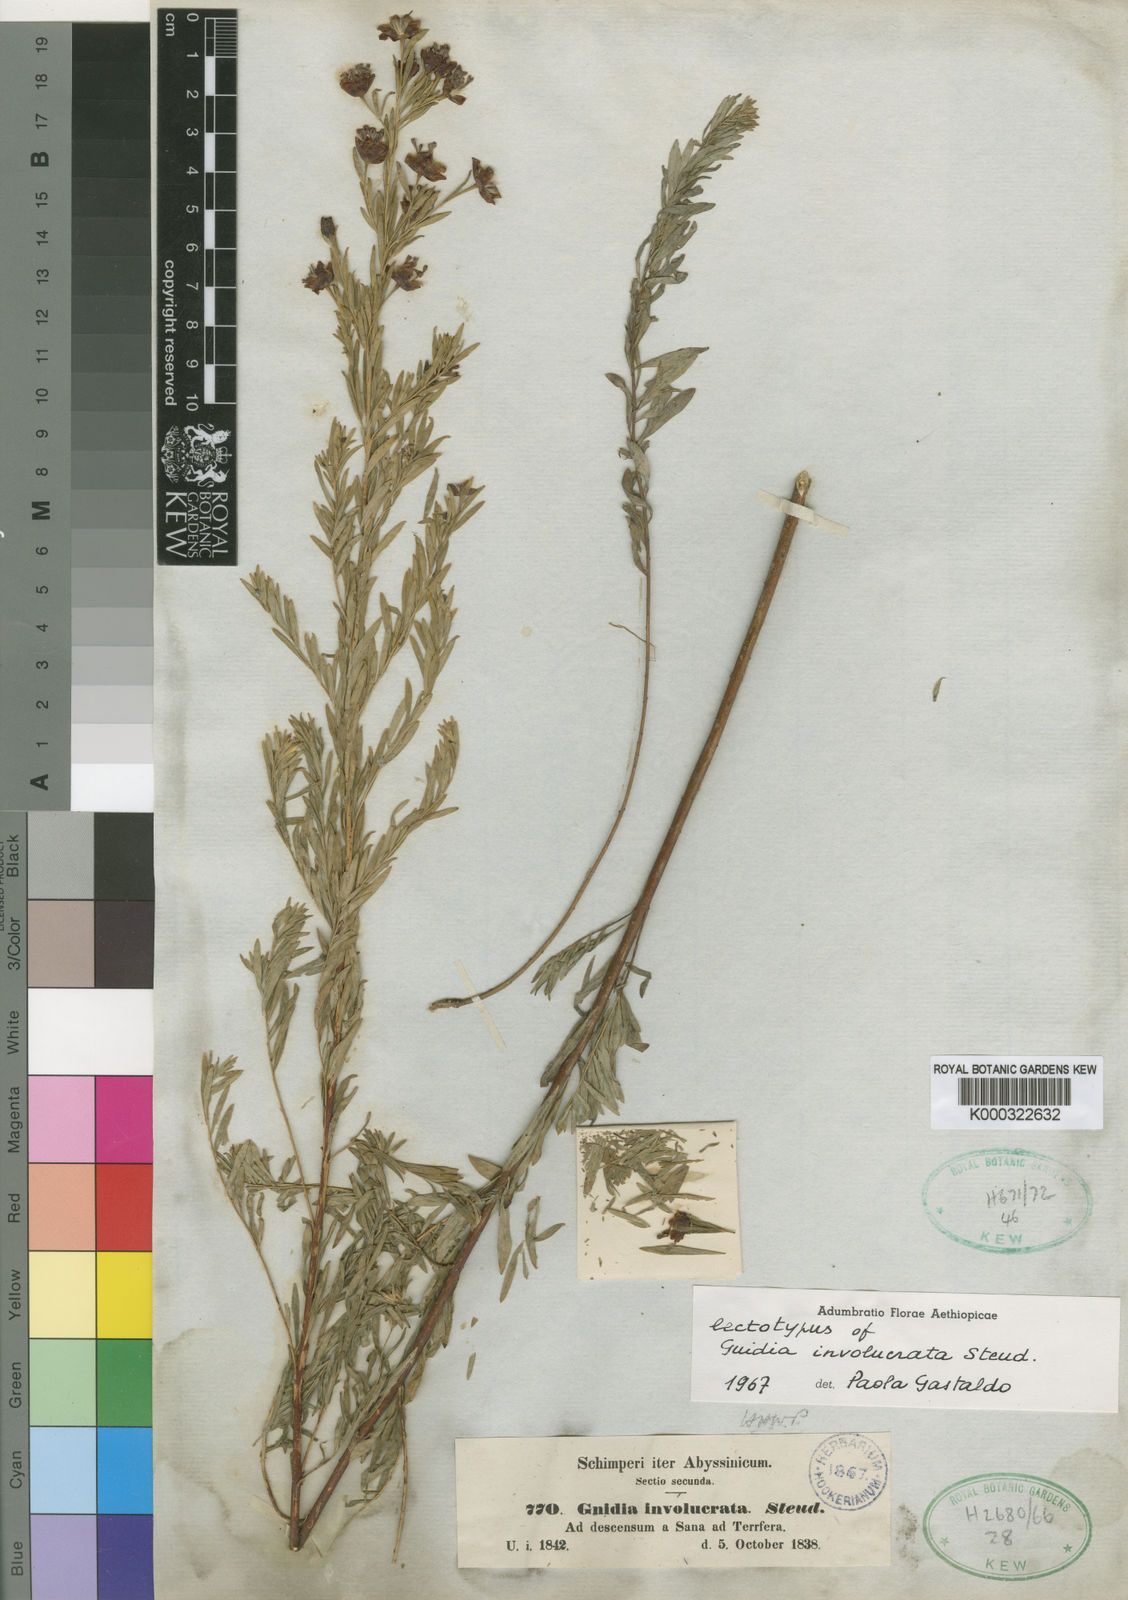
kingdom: Plantae
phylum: Tracheophyta
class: Magnoliopsida
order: Malvales
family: Thymelaeaceae
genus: Gnidia
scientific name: Gnidia involucrata
